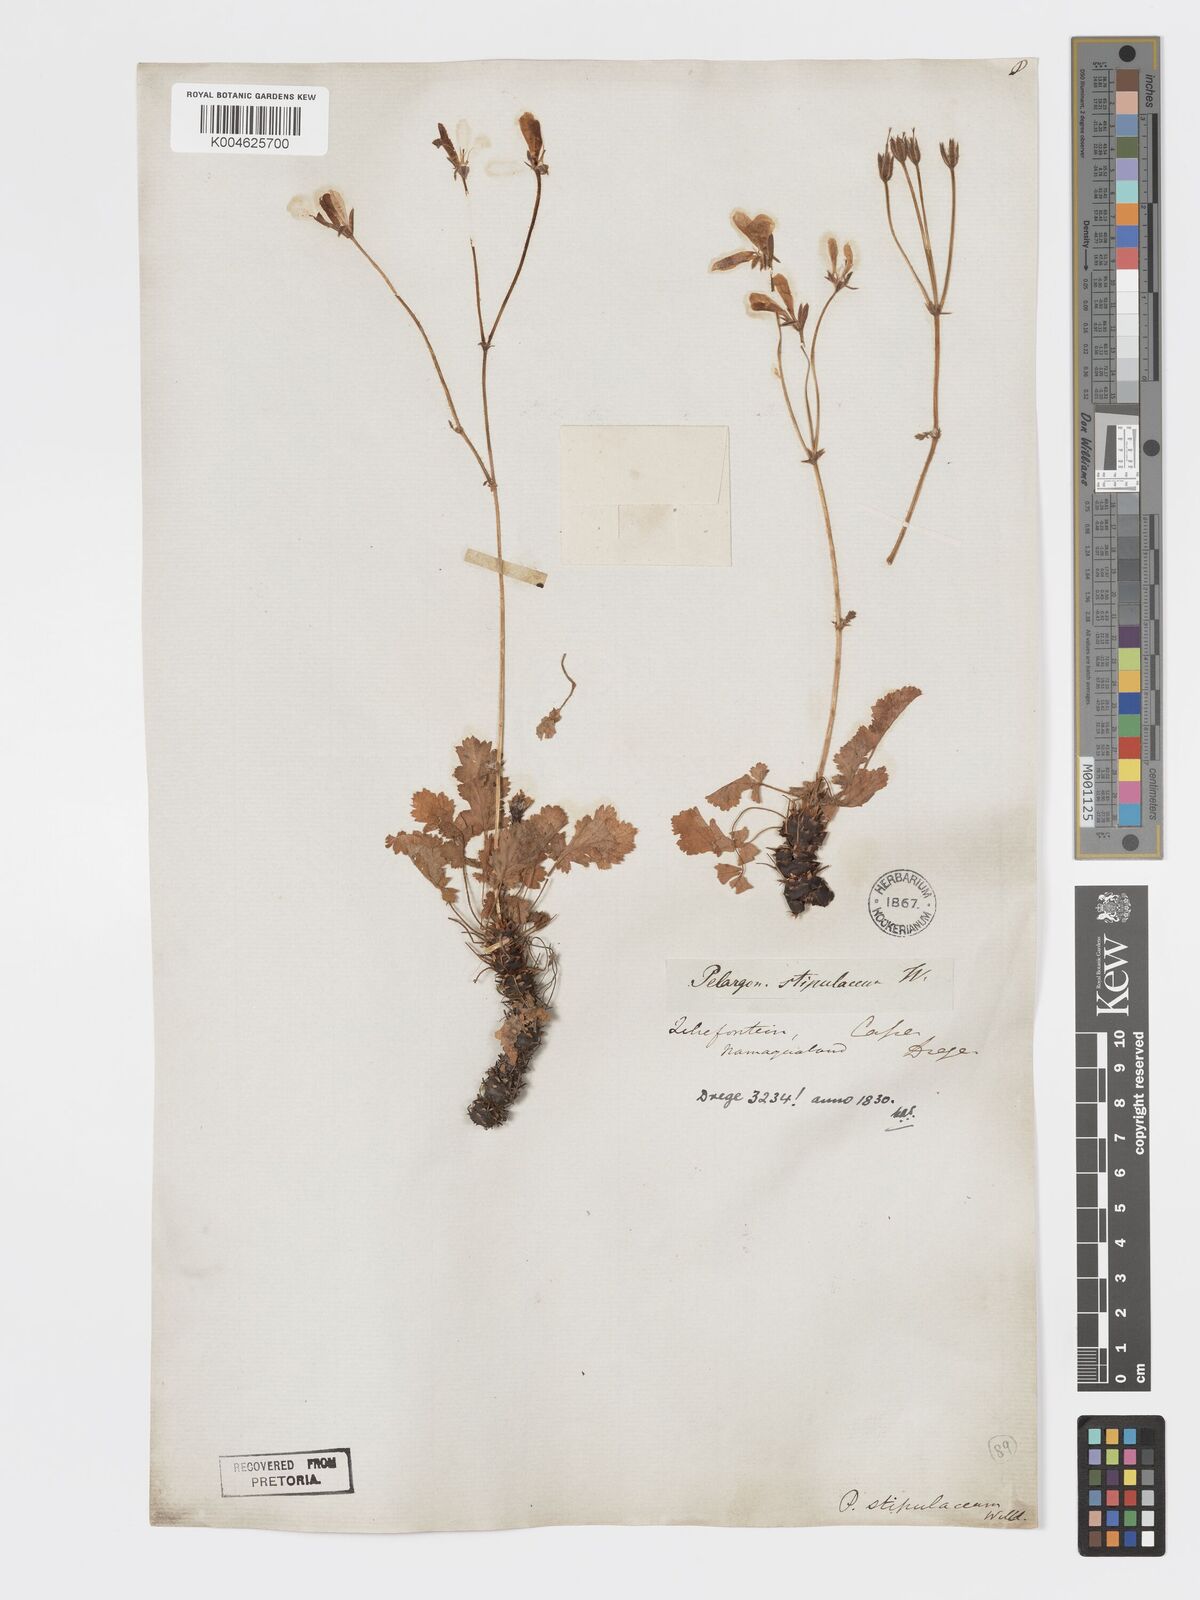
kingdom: Plantae
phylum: Tracheophyta
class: Magnoliopsida
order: Geraniales
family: Geraniaceae
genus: Pelargonium
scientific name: Pelargonium stipulaceum
